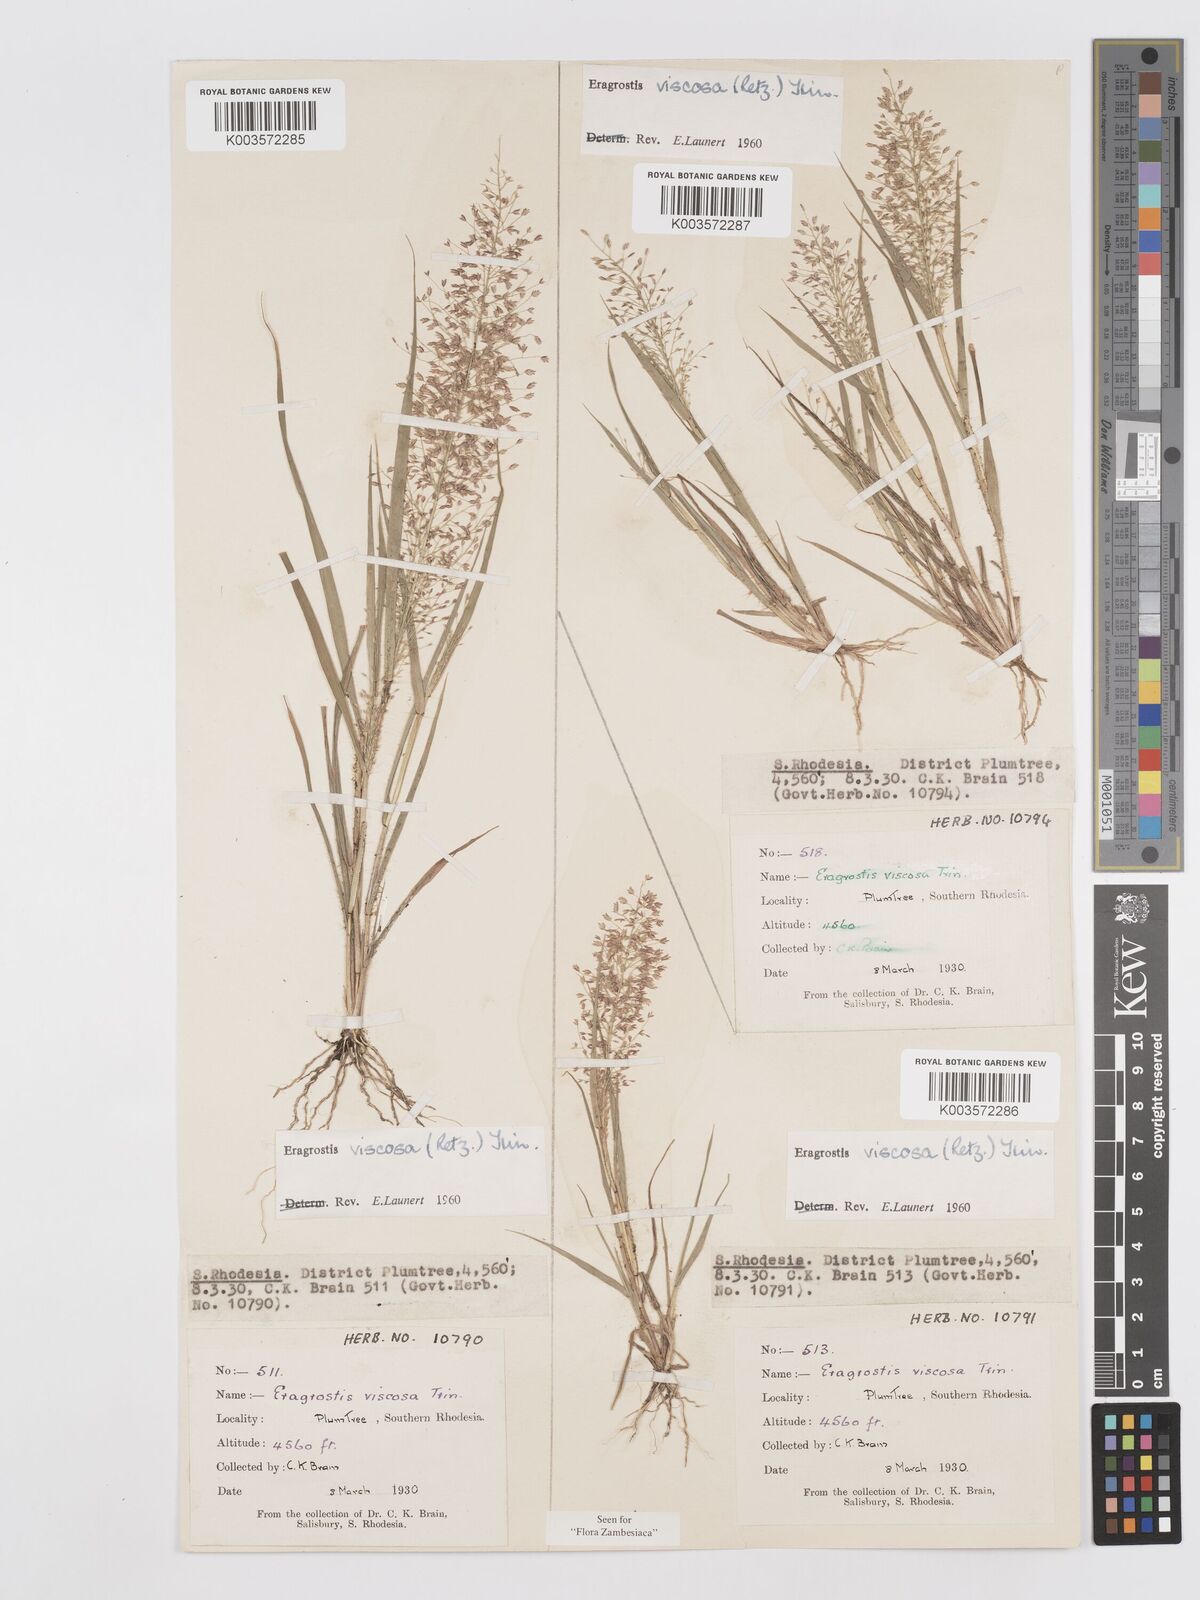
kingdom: Plantae
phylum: Tracheophyta
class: Liliopsida
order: Poales
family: Poaceae
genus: Eragrostis
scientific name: Eragrostis
